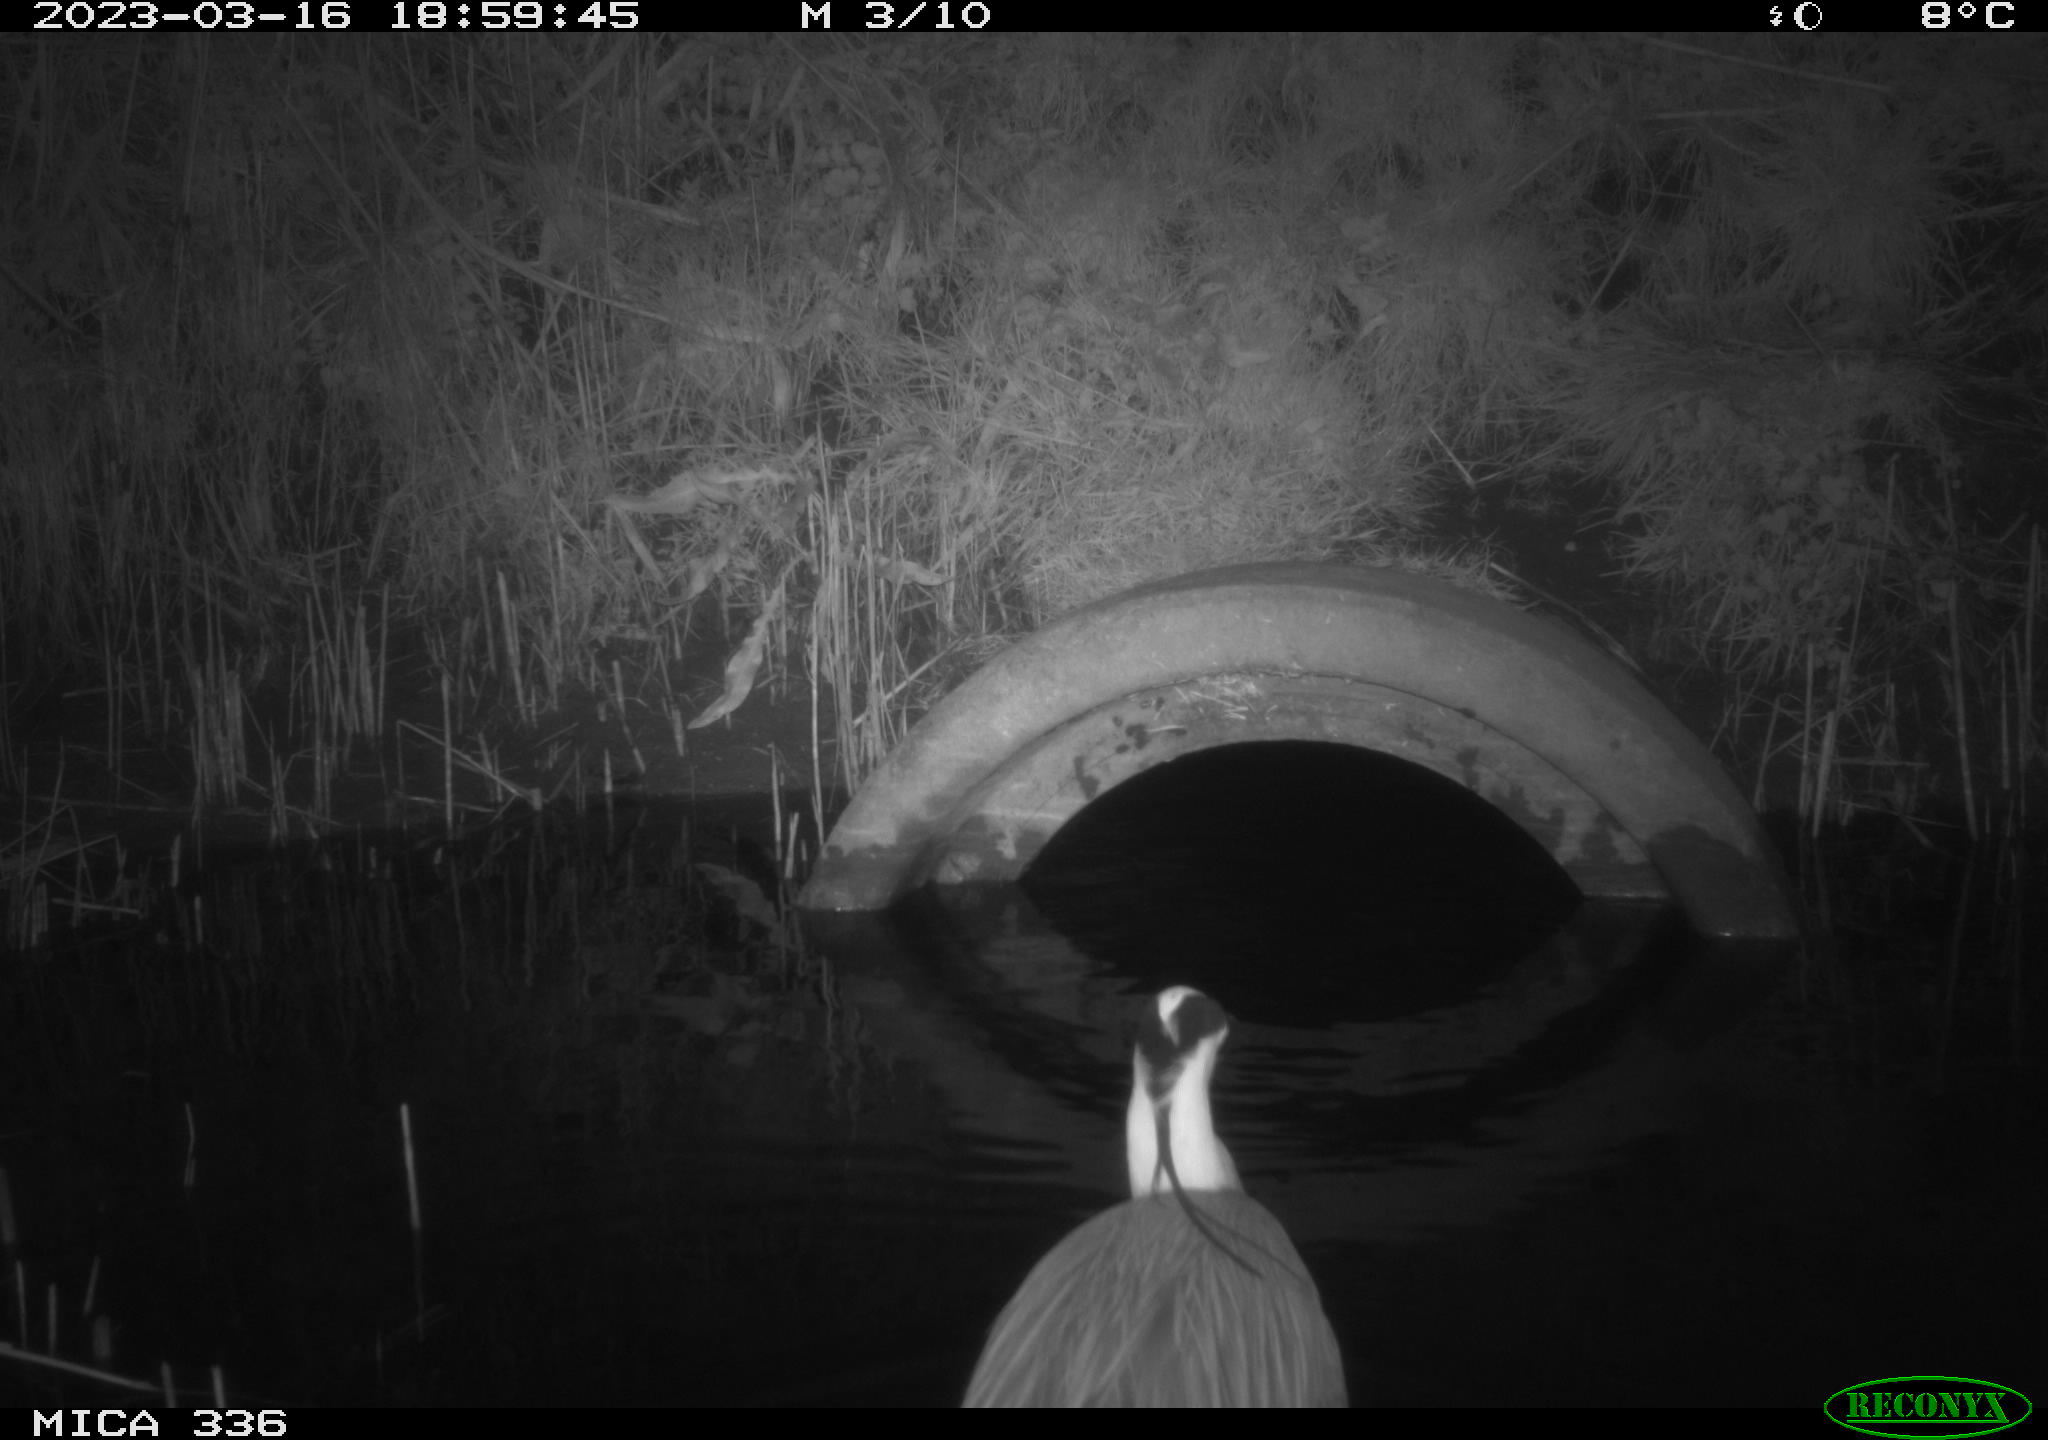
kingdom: Animalia
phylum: Chordata
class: Aves
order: Pelecaniformes
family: Ardeidae
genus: Ardea
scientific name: Ardea cinerea
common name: Grey heron
